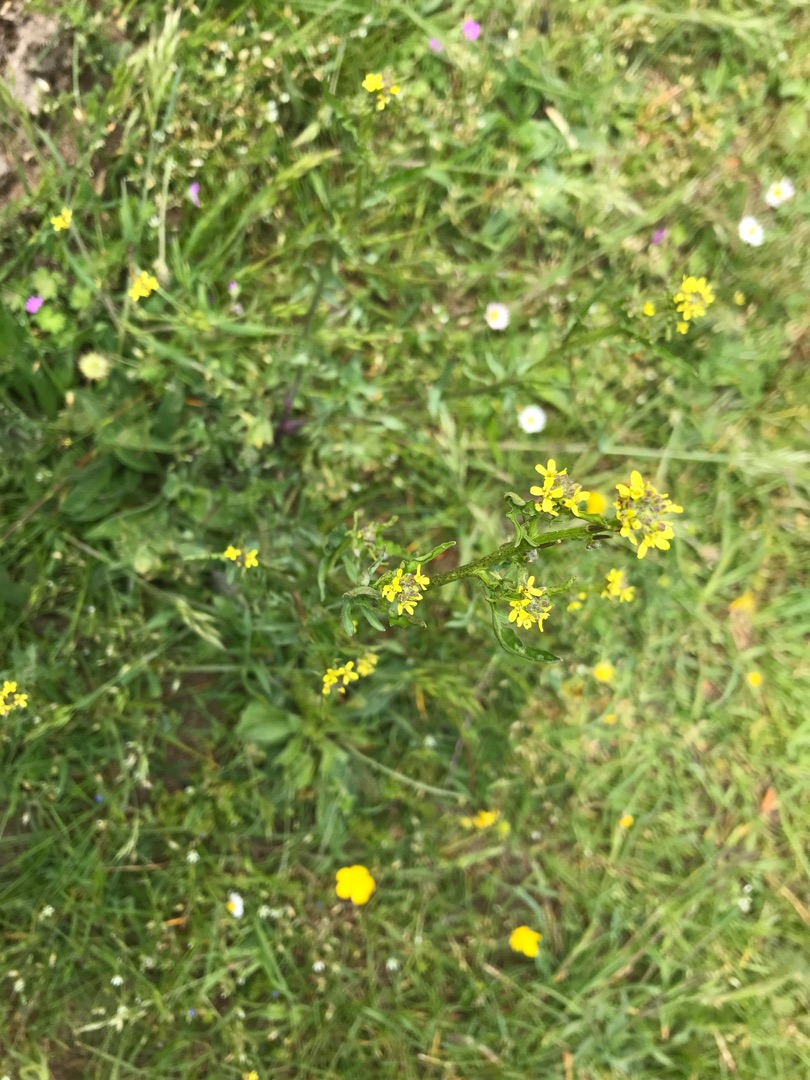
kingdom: Plantae
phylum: Tracheophyta
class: Magnoliopsida
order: Brassicales
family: Brassicaceae
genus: Sisymbrium
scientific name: Sisymbrium officinale
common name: Rank vejsennep
